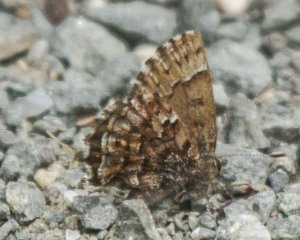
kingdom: Animalia
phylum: Arthropoda
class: Insecta
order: Lepidoptera
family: Lycaenidae
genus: Incisalia
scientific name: Incisalia lanoraieensis
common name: Bog Elfin
